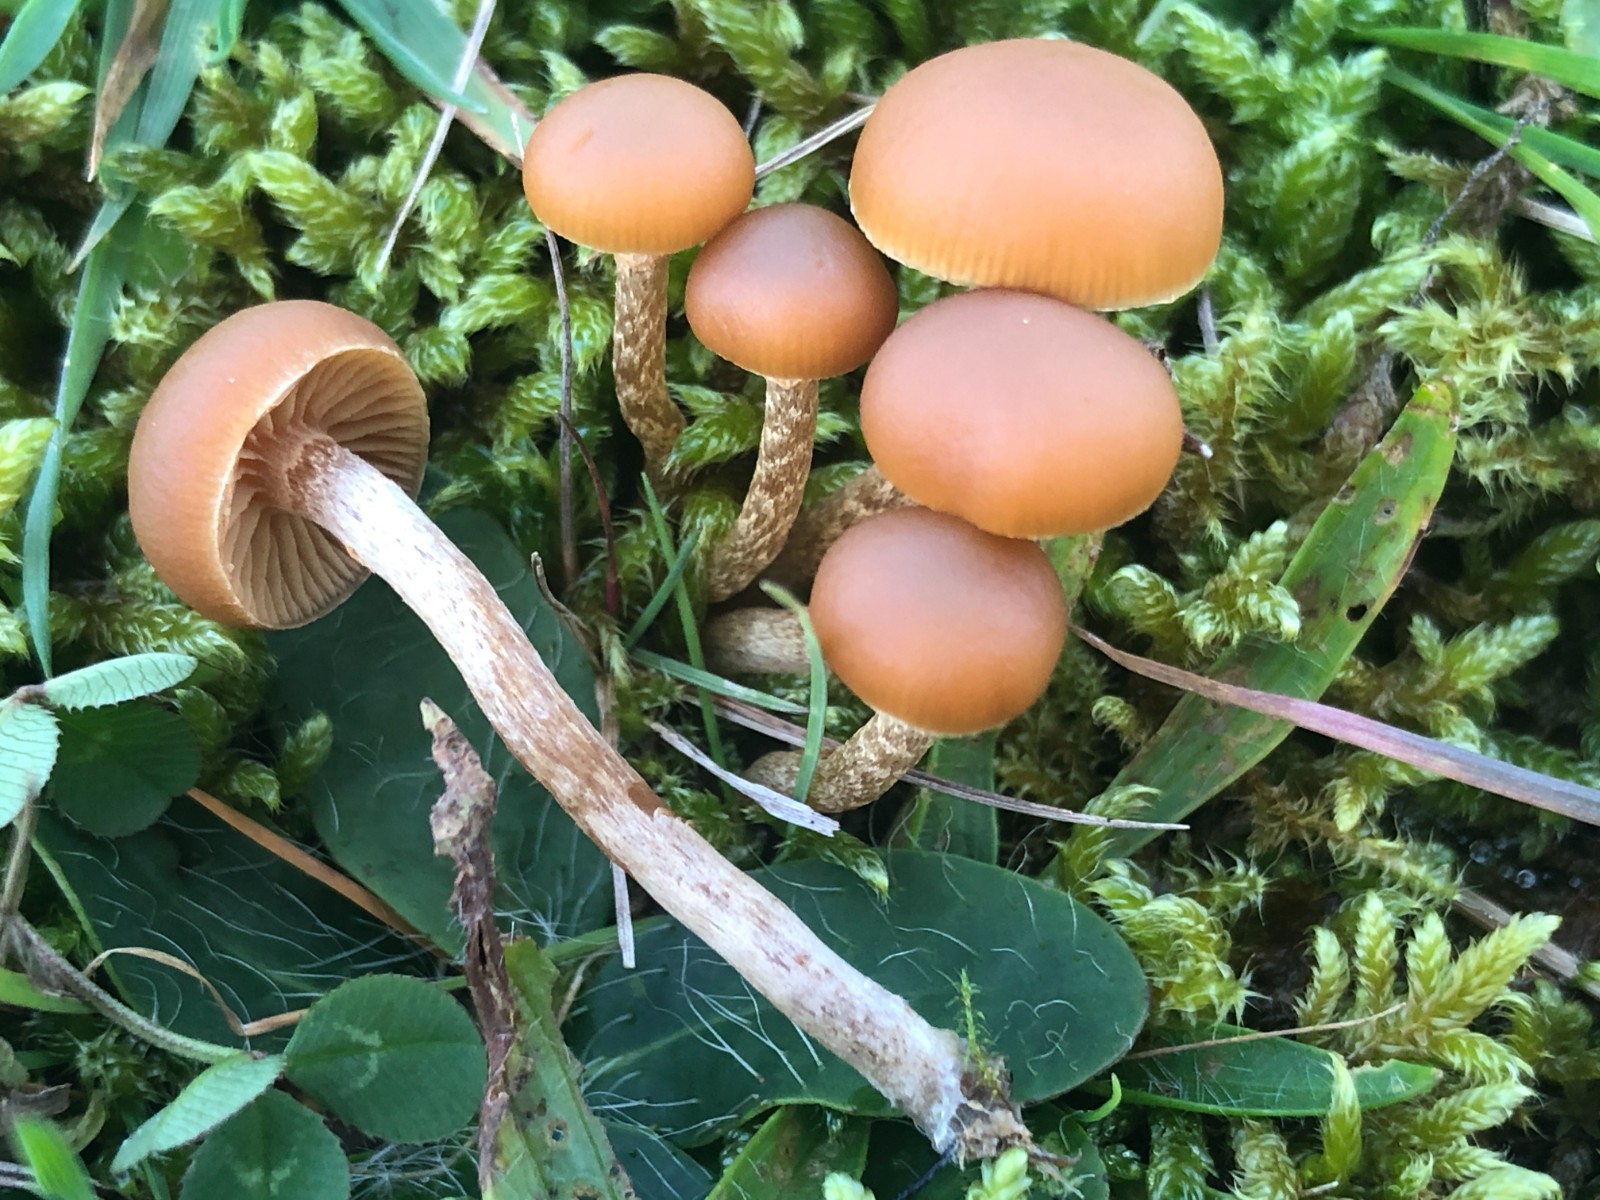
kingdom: Fungi
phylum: Basidiomycota
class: Agaricomycetes
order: Agaricales
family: Hymenogastraceae
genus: Galerina
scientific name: Galerina
